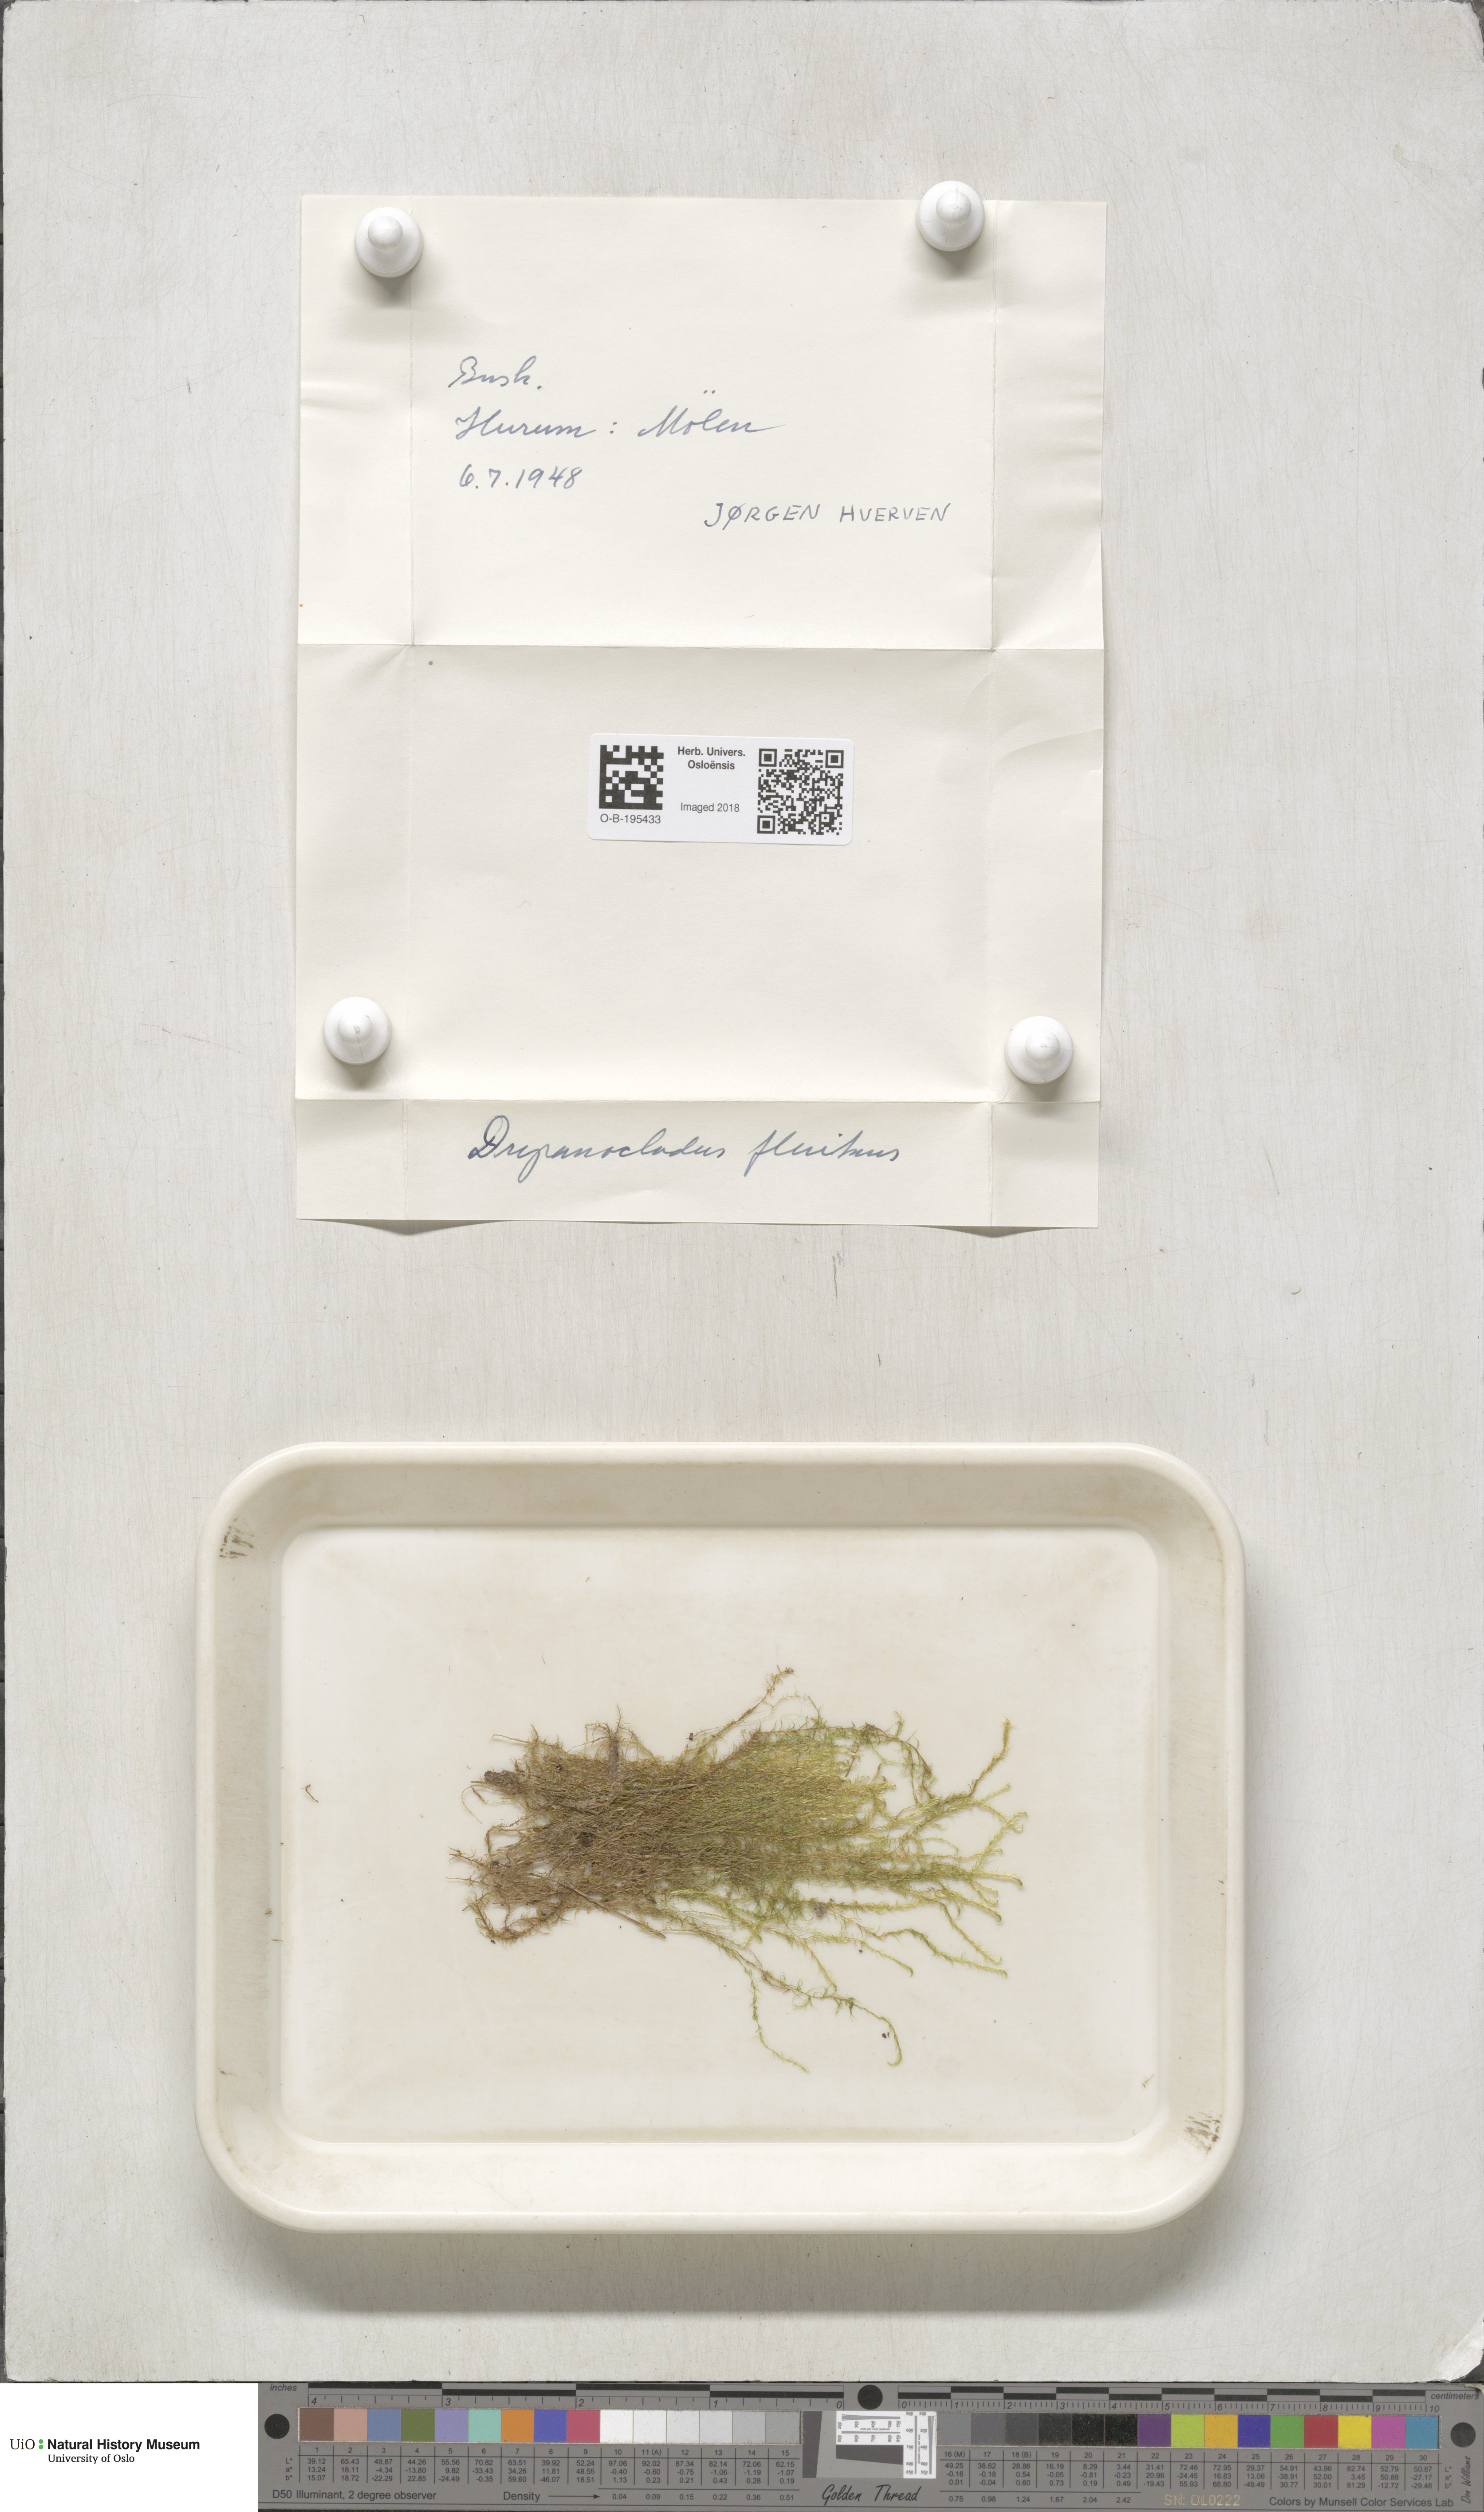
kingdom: Plantae
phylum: Bryophyta
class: Bryopsida
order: Hypnales
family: Calliergonaceae
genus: Warnstorfia
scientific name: Warnstorfia fluitans
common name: Floating hook moss
